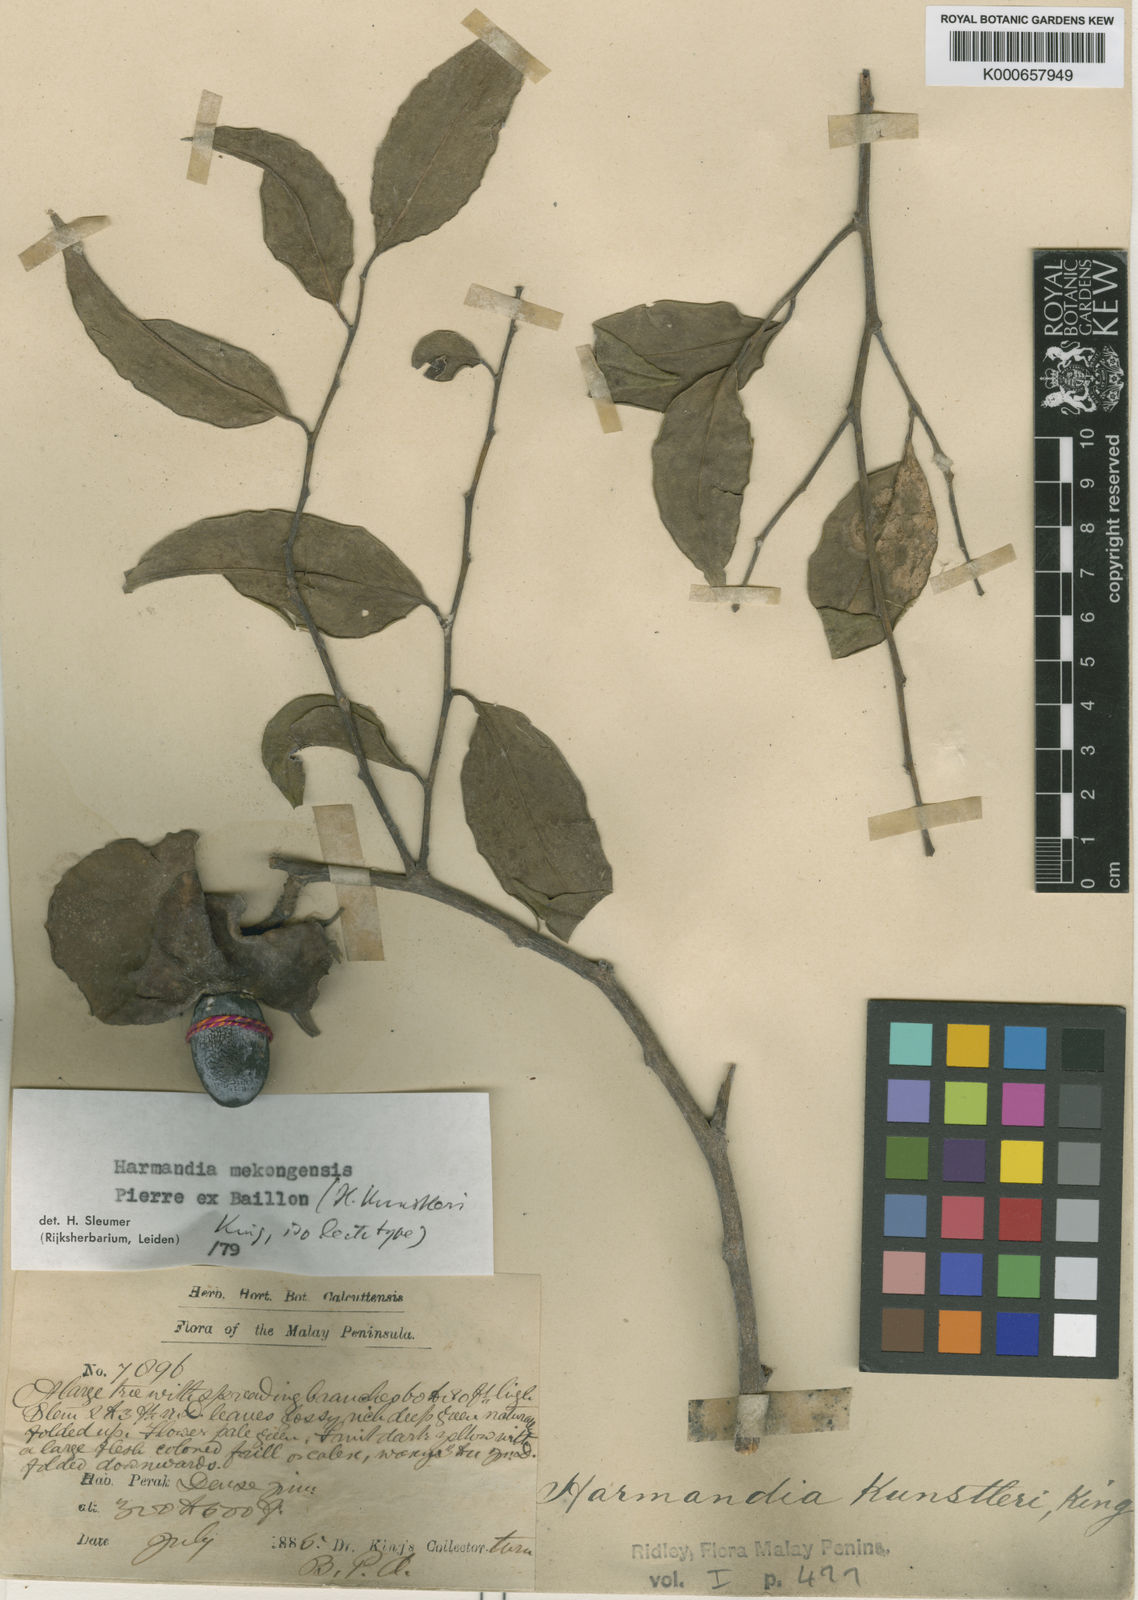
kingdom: Plantae
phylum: Tracheophyta
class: Magnoliopsida
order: Santalales
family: Aptandraceae
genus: Harmandia
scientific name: Harmandia mekongensis
